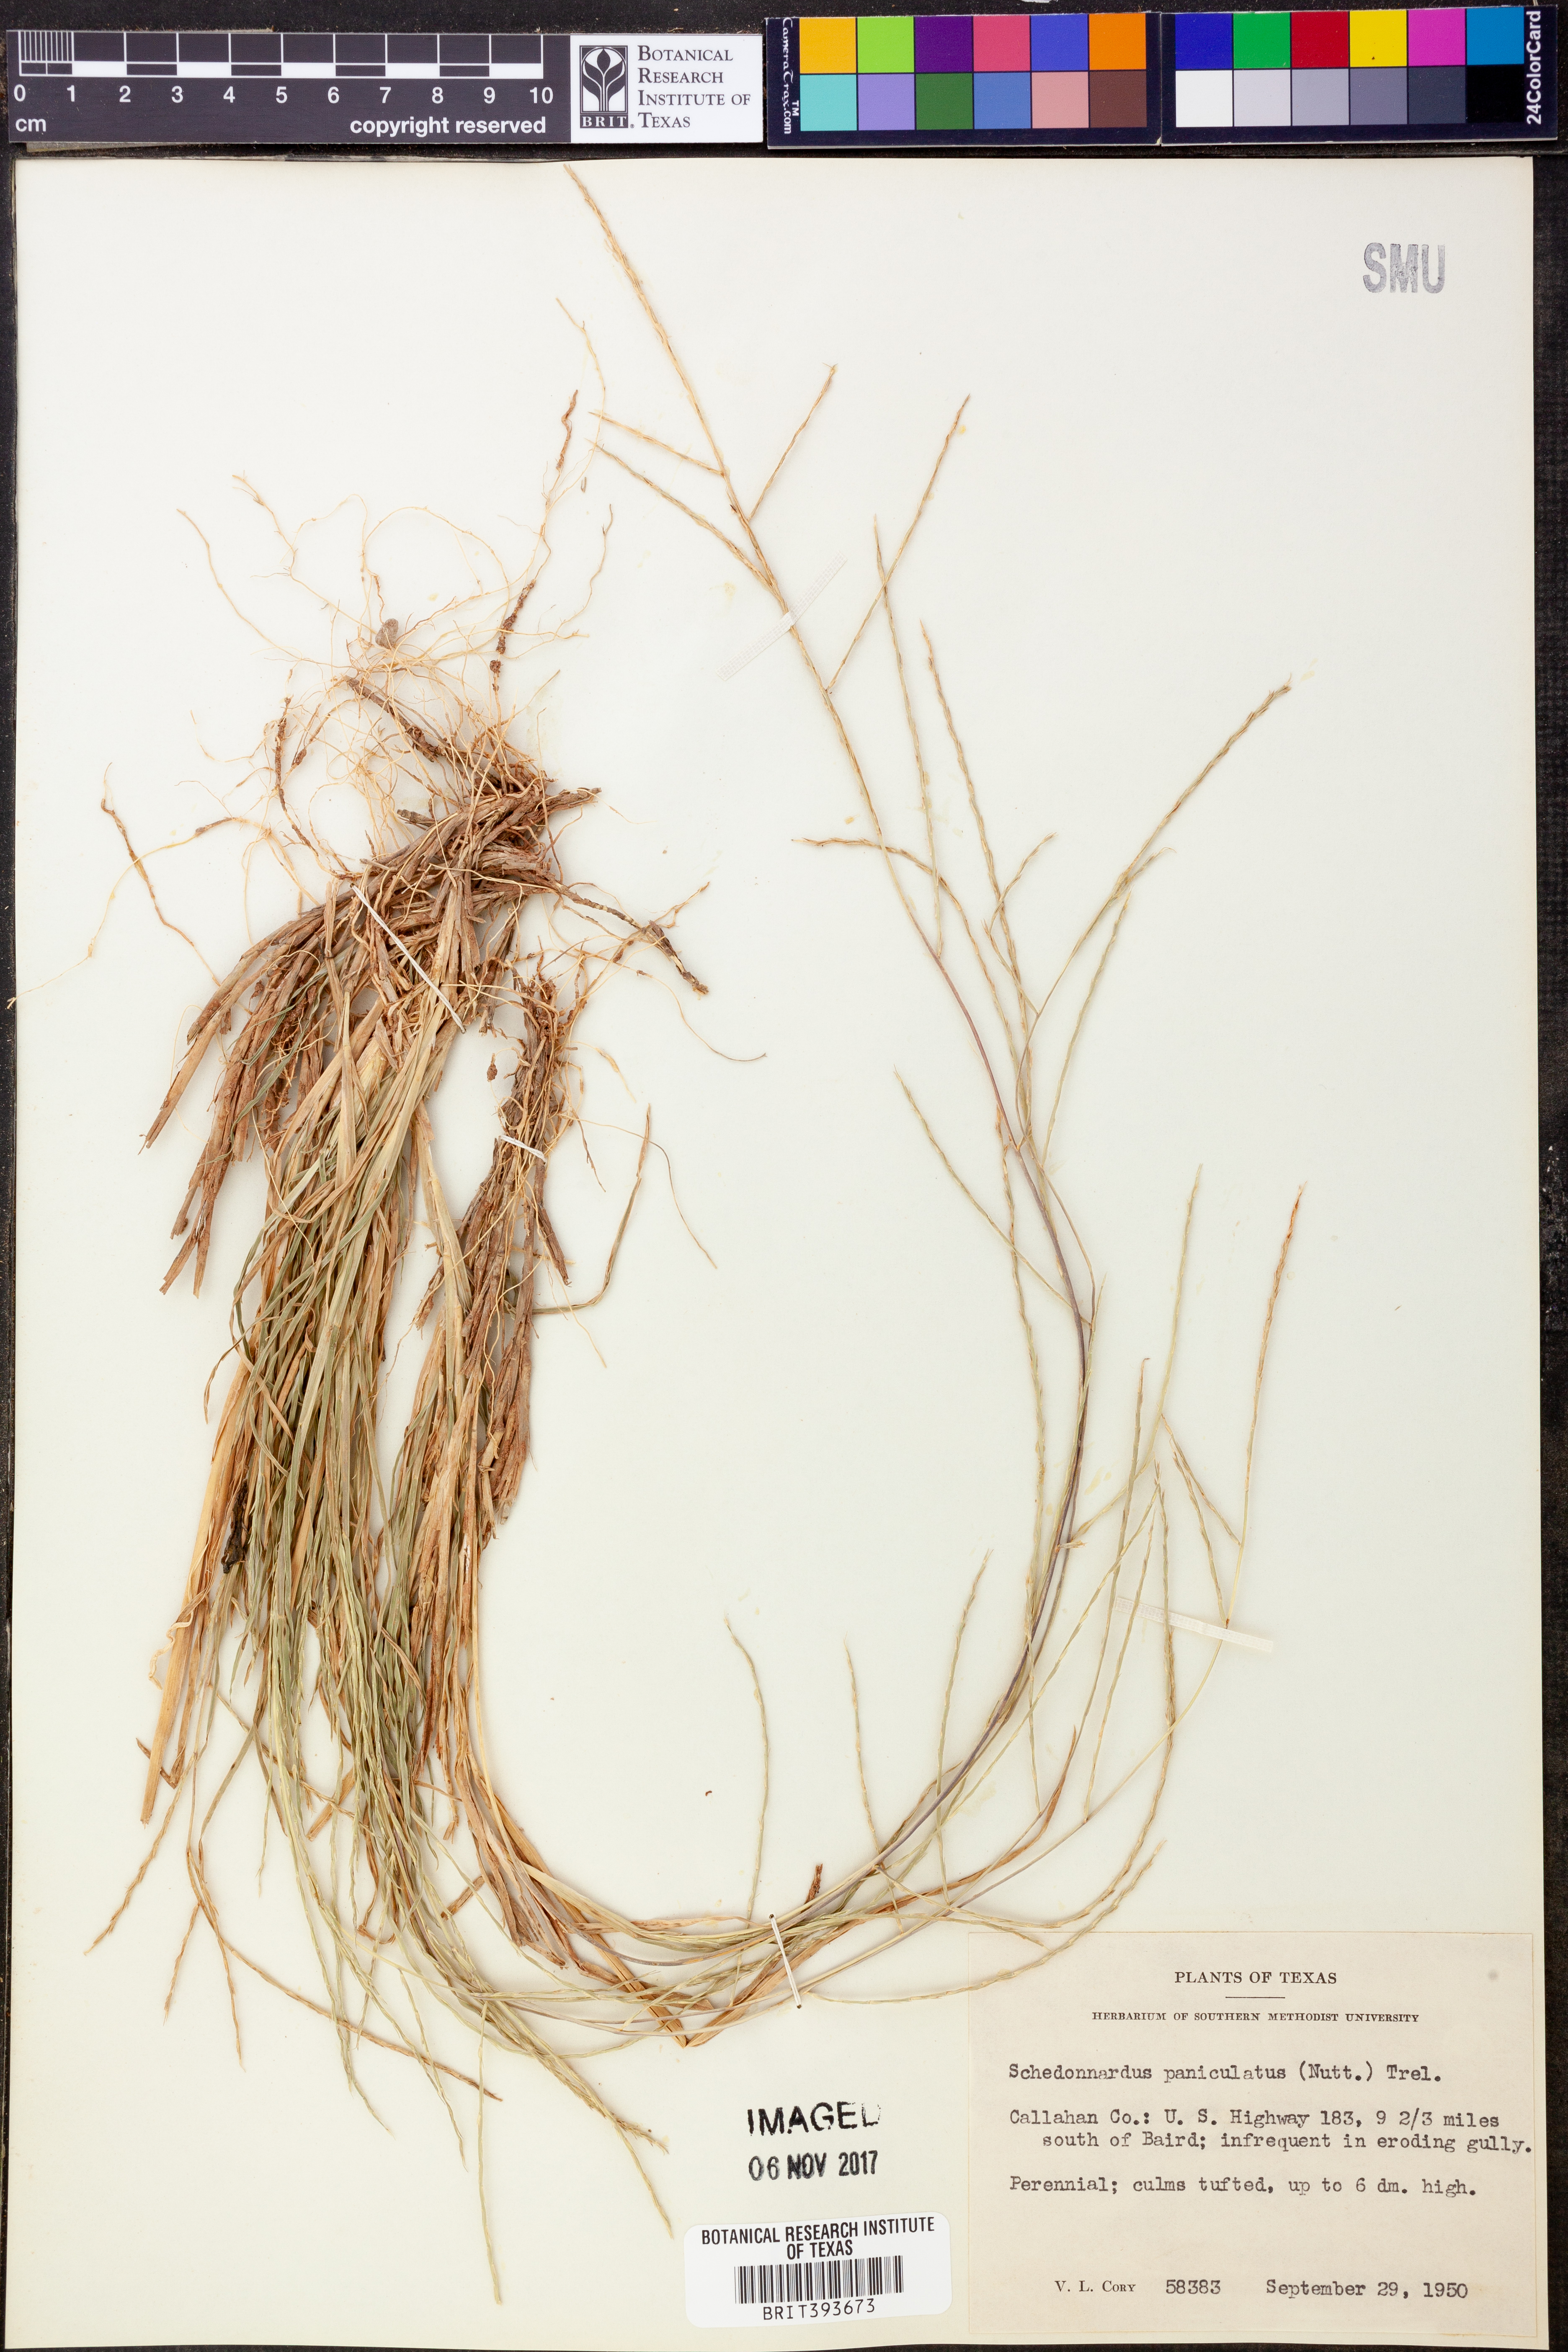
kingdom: Plantae
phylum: Tracheophyta
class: Liliopsida
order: Poales
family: Poaceae
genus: Muhlenbergia
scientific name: Muhlenbergia paniculata
